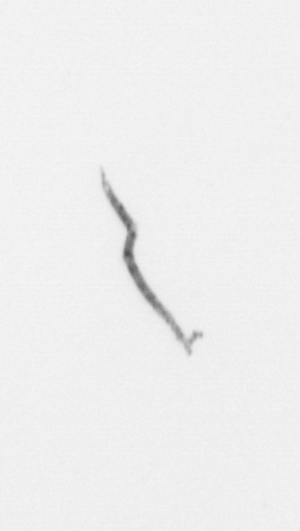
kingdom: Chromista
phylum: Ochrophyta
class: Bacillariophyceae
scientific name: Bacillariophyceae
